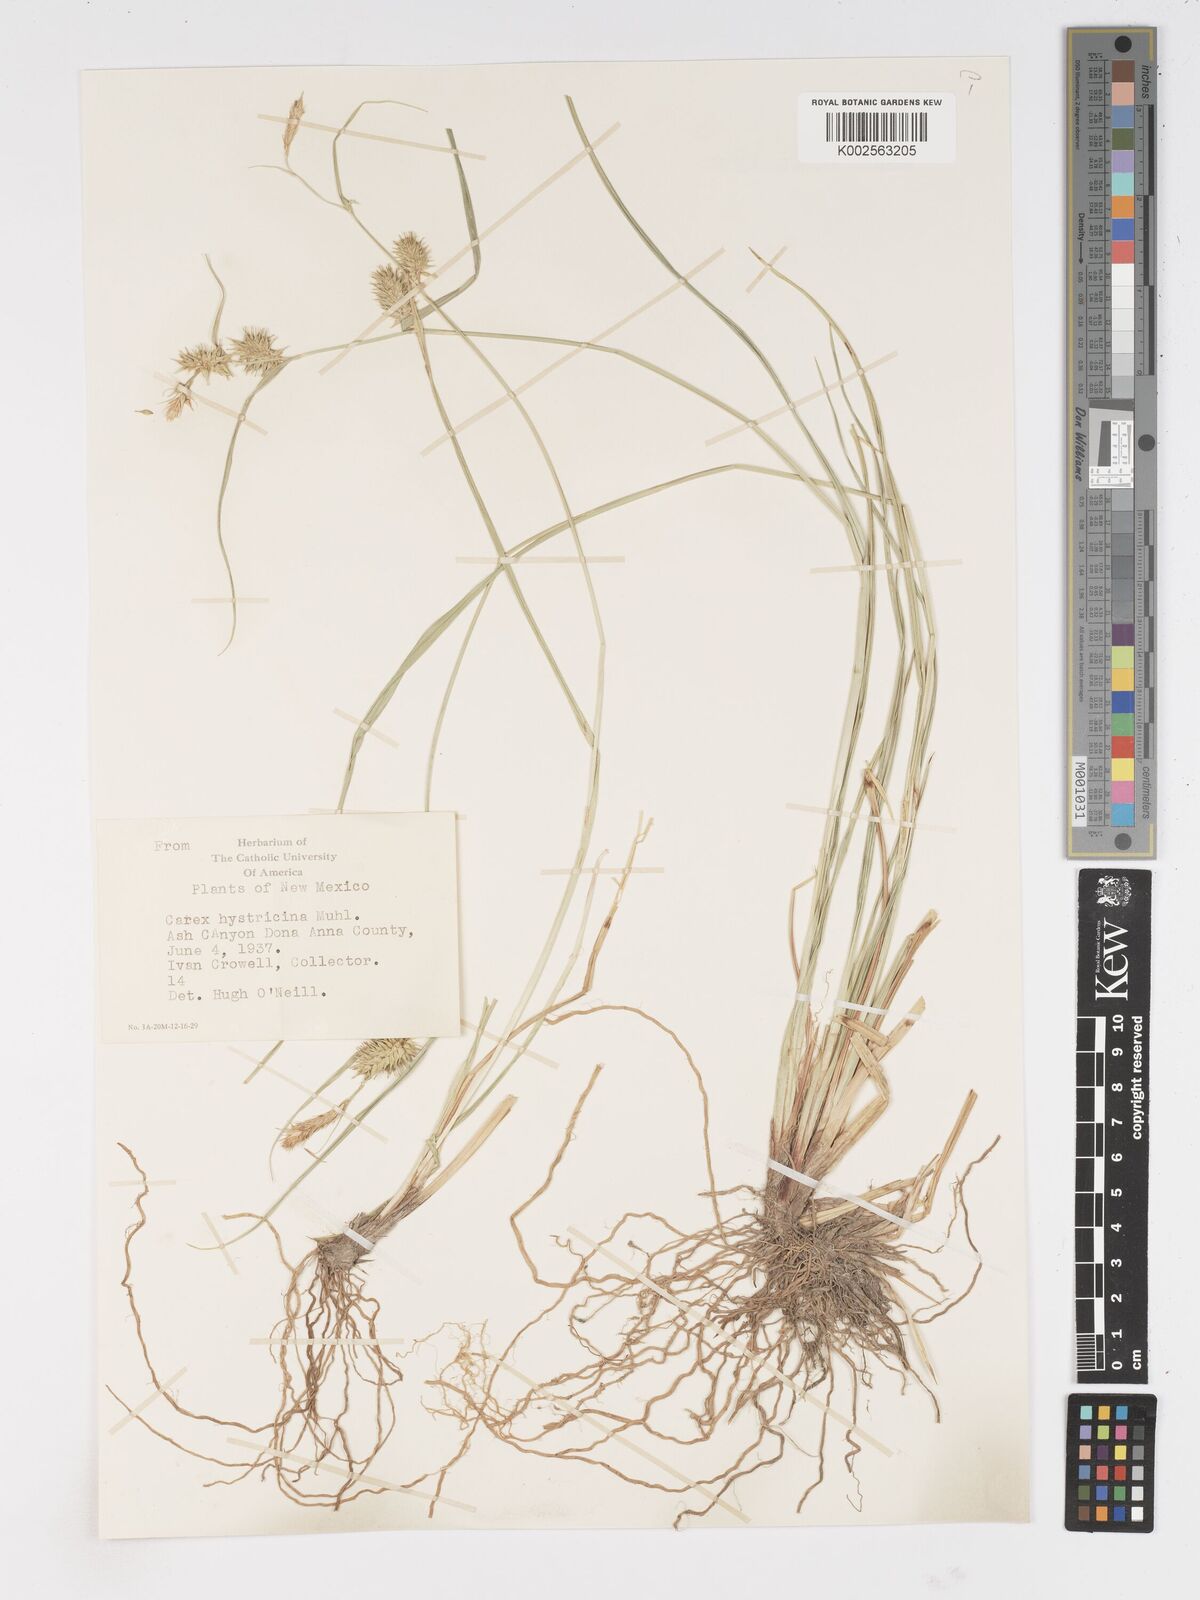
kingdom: Plantae
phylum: Tracheophyta
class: Liliopsida
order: Poales
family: Cyperaceae
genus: Carex
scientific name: Carex hystericina
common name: Bottlebrush sedge
